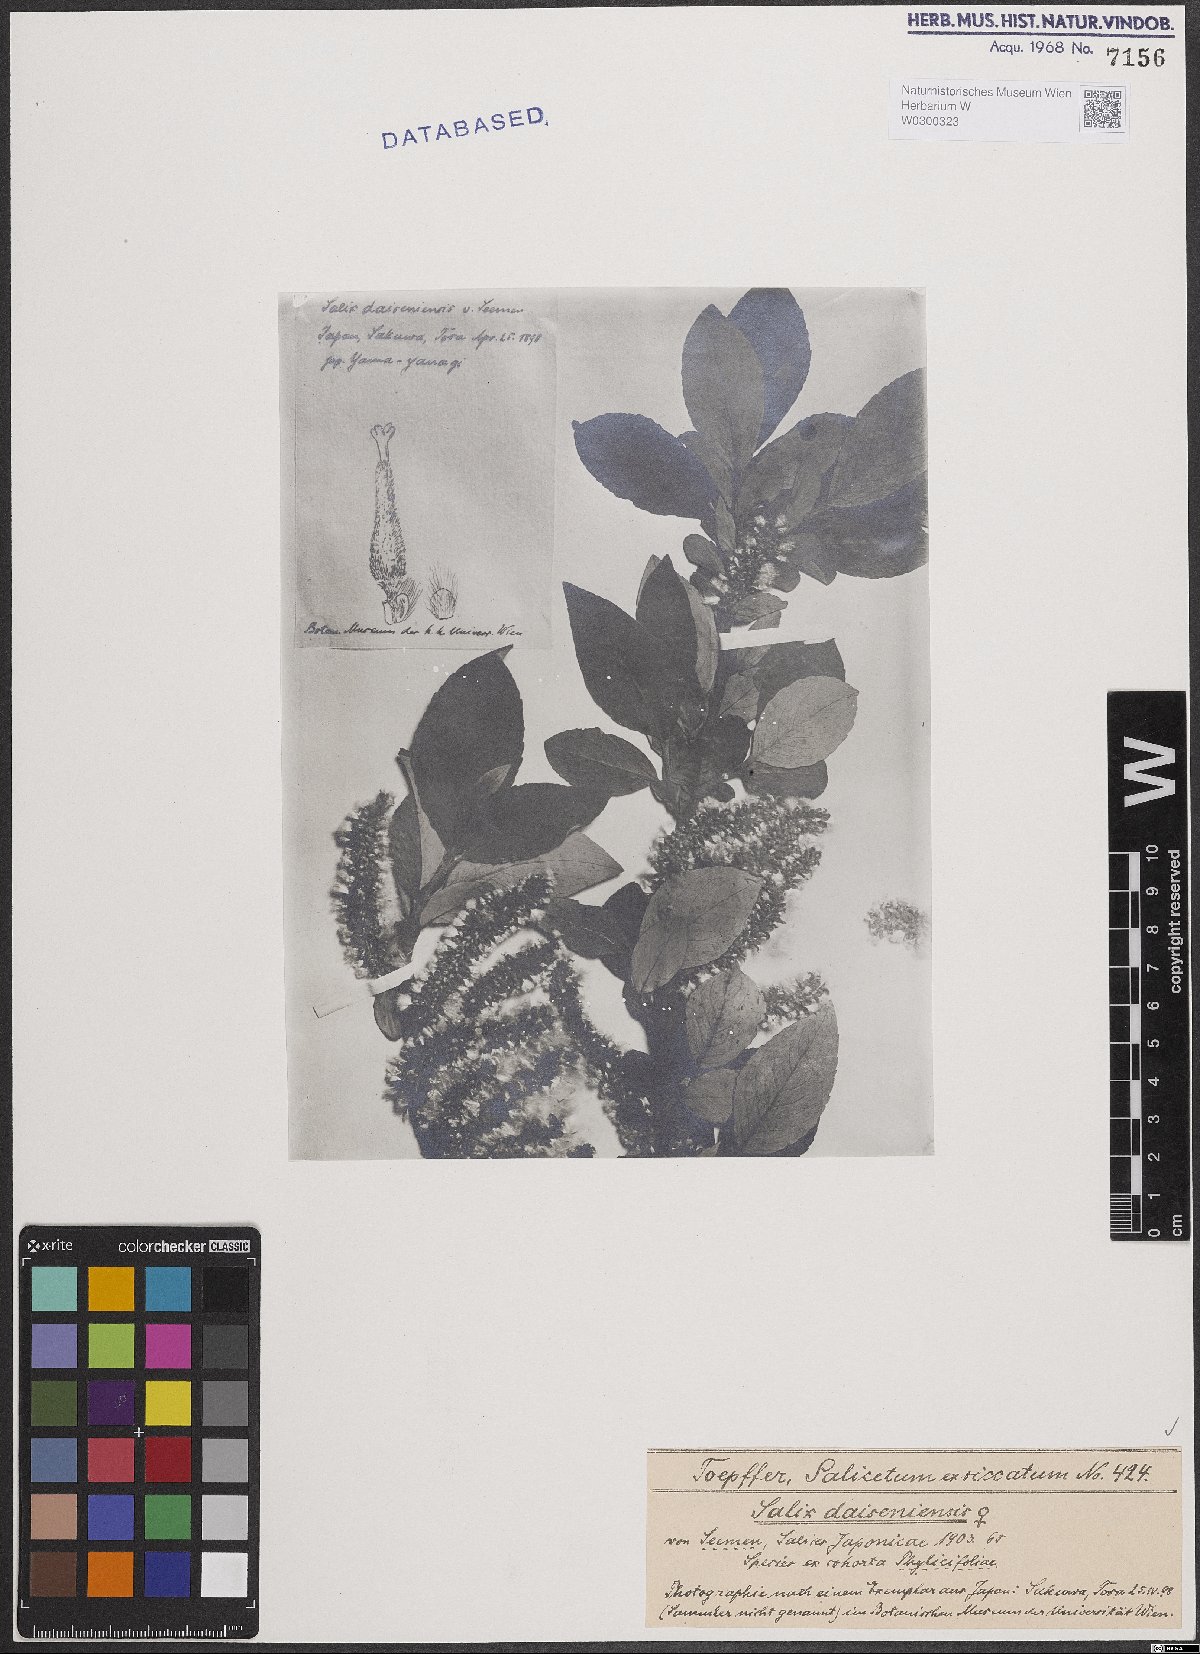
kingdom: Plantae
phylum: Tracheophyta
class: Magnoliopsida
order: Malpighiales
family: Salicaceae
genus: Salix
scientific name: Salix sieboldiana
